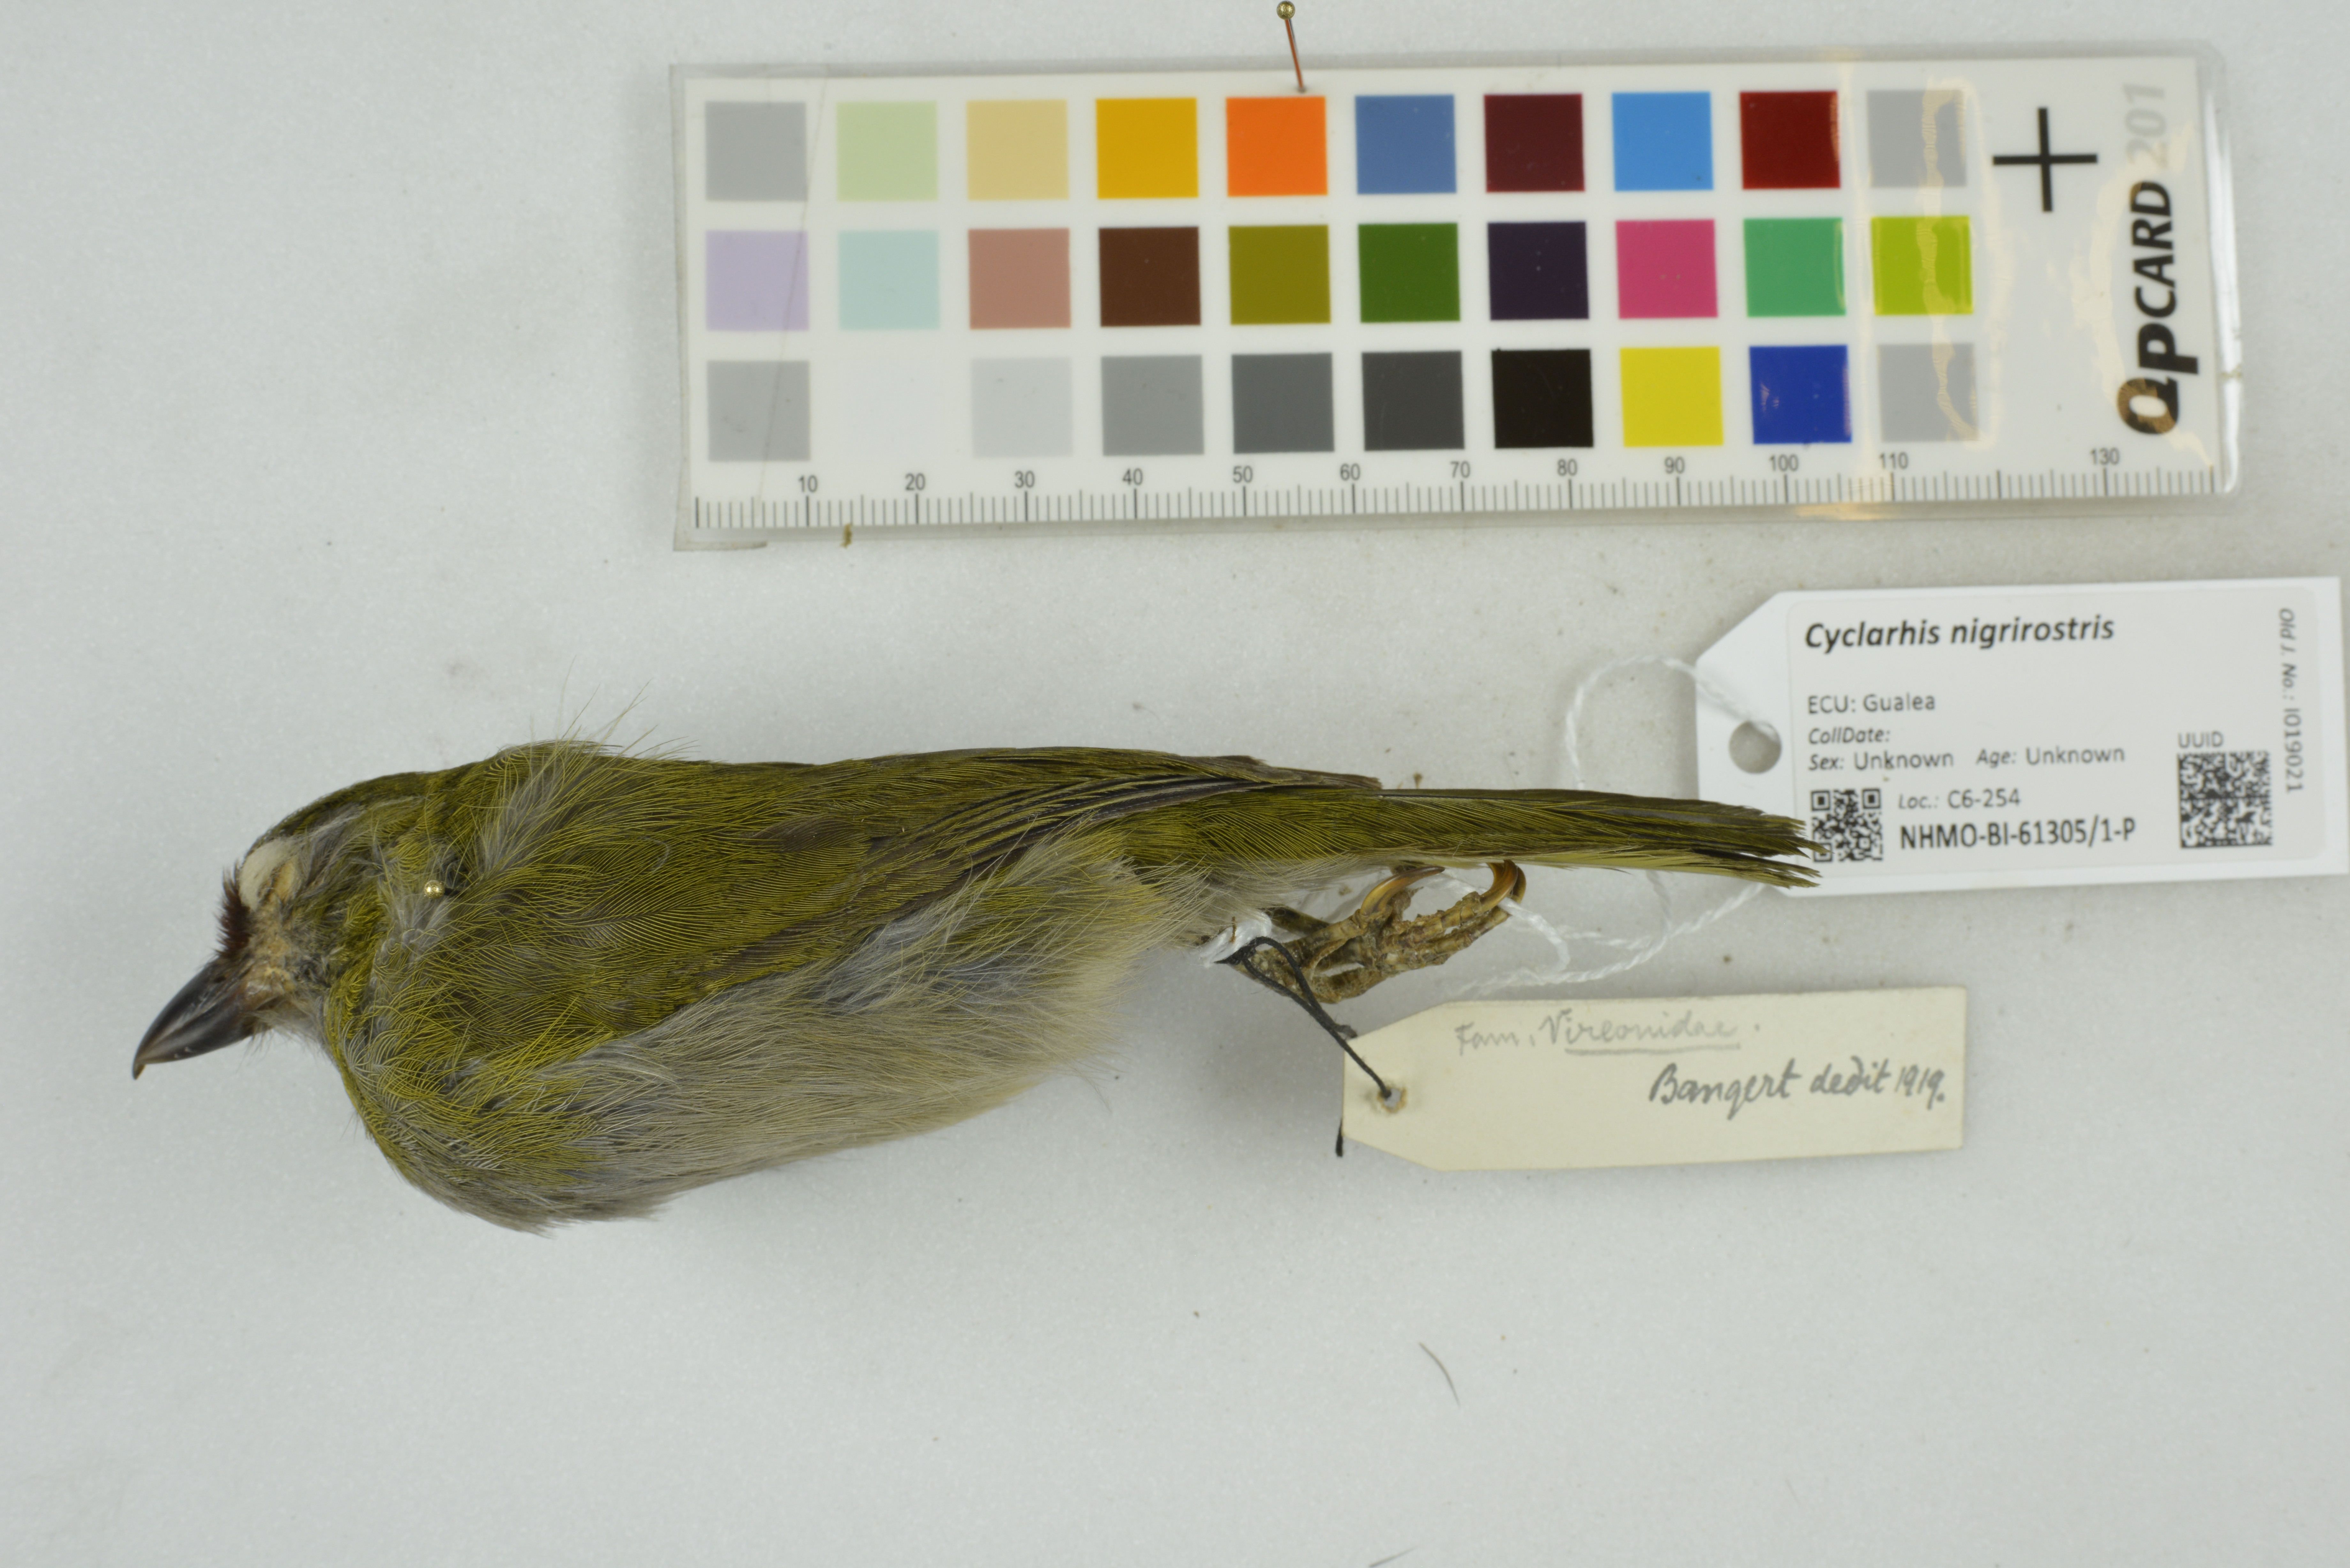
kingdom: Animalia
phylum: Chordata
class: Aves
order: Passeriformes
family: Vireonidae
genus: Cyclarhis
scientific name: Cyclarhis nigrirostris
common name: Black-billed peppershrike
